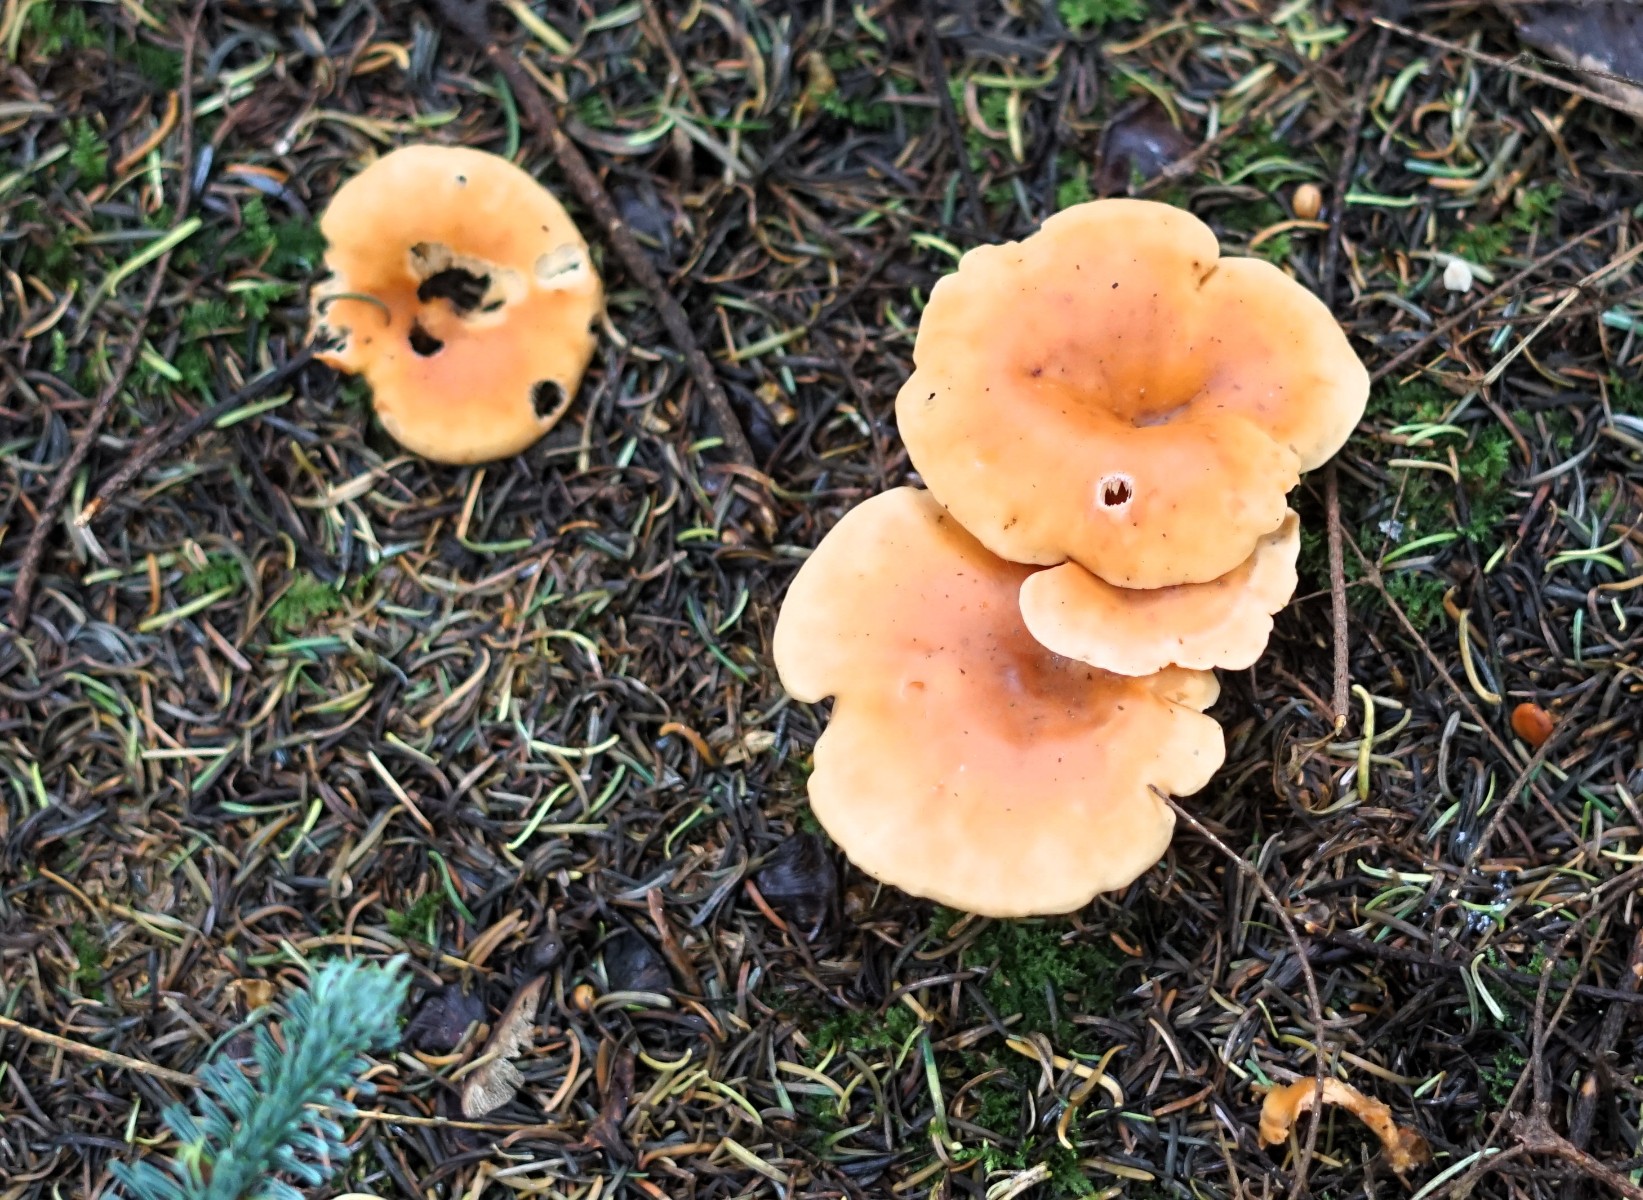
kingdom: Fungi
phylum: Basidiomycota
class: Agaricomycetes
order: Agaricales
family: Tricholomataceae
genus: Paralepista
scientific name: Paralepista flaccida
